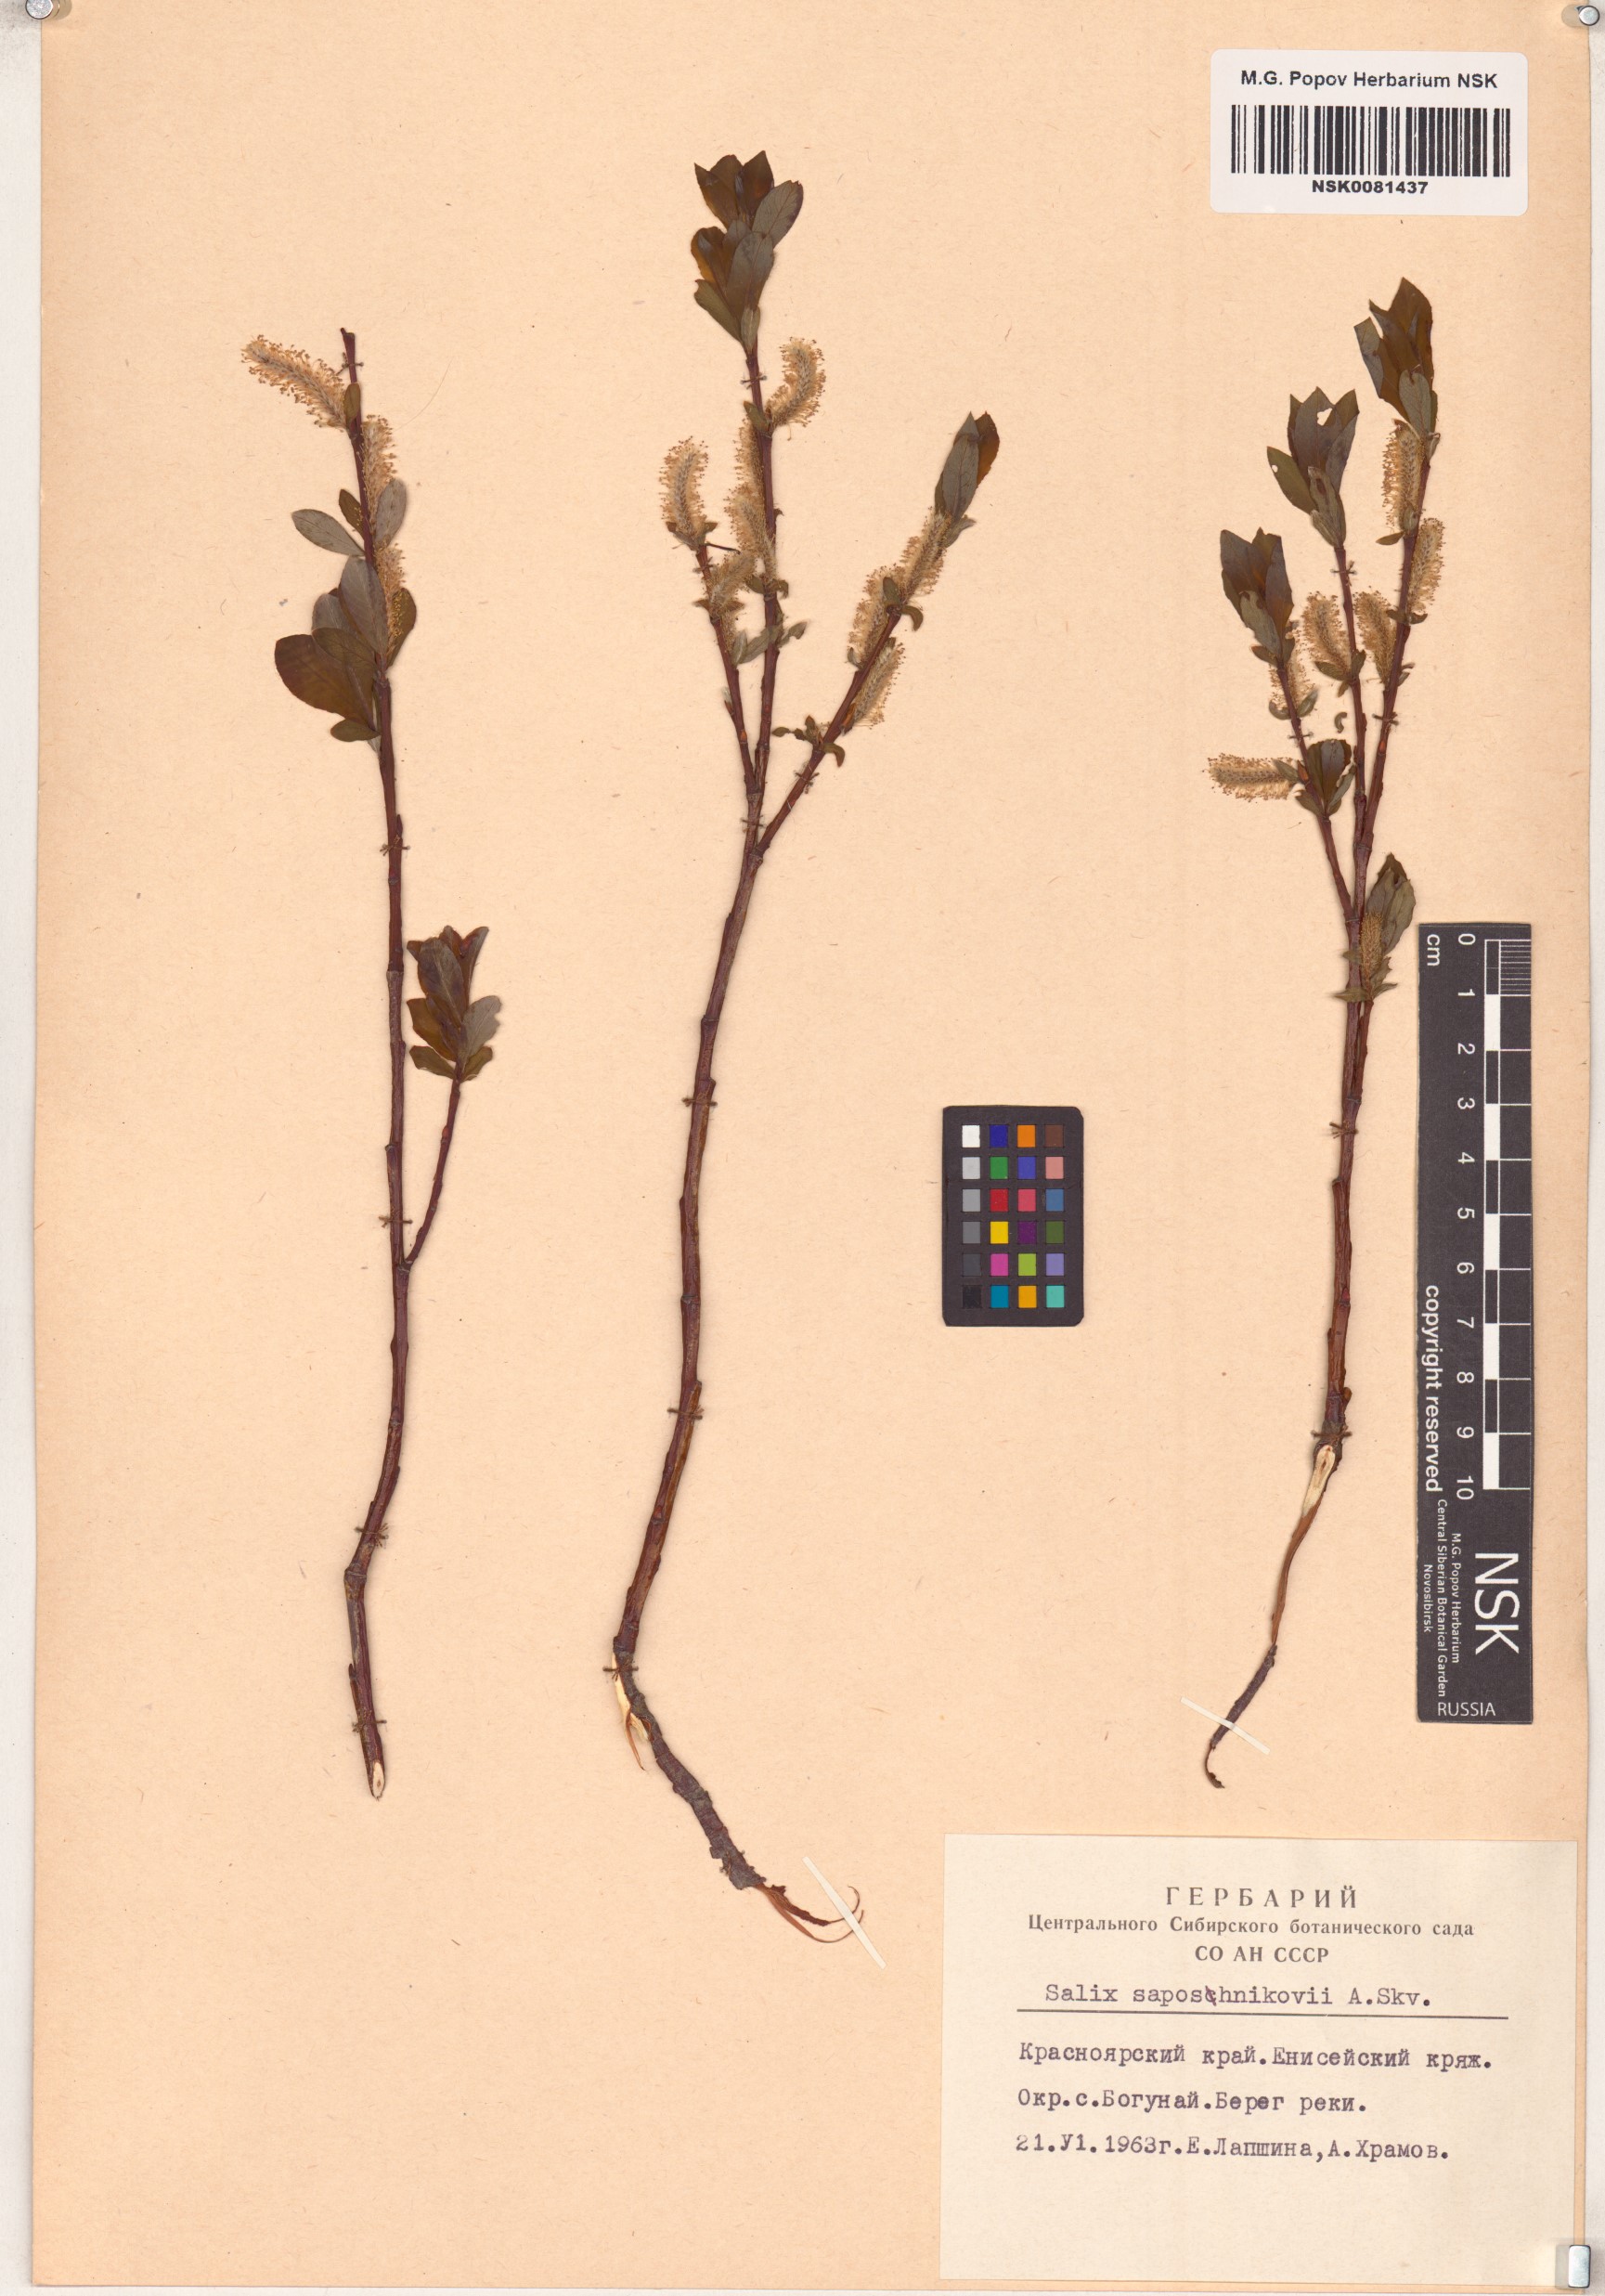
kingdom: Plantae
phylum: Tracheophyta
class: Magnoliopsida
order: Malpighiales
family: Salicaceae
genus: Salix
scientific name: Salix saposhnikovii
